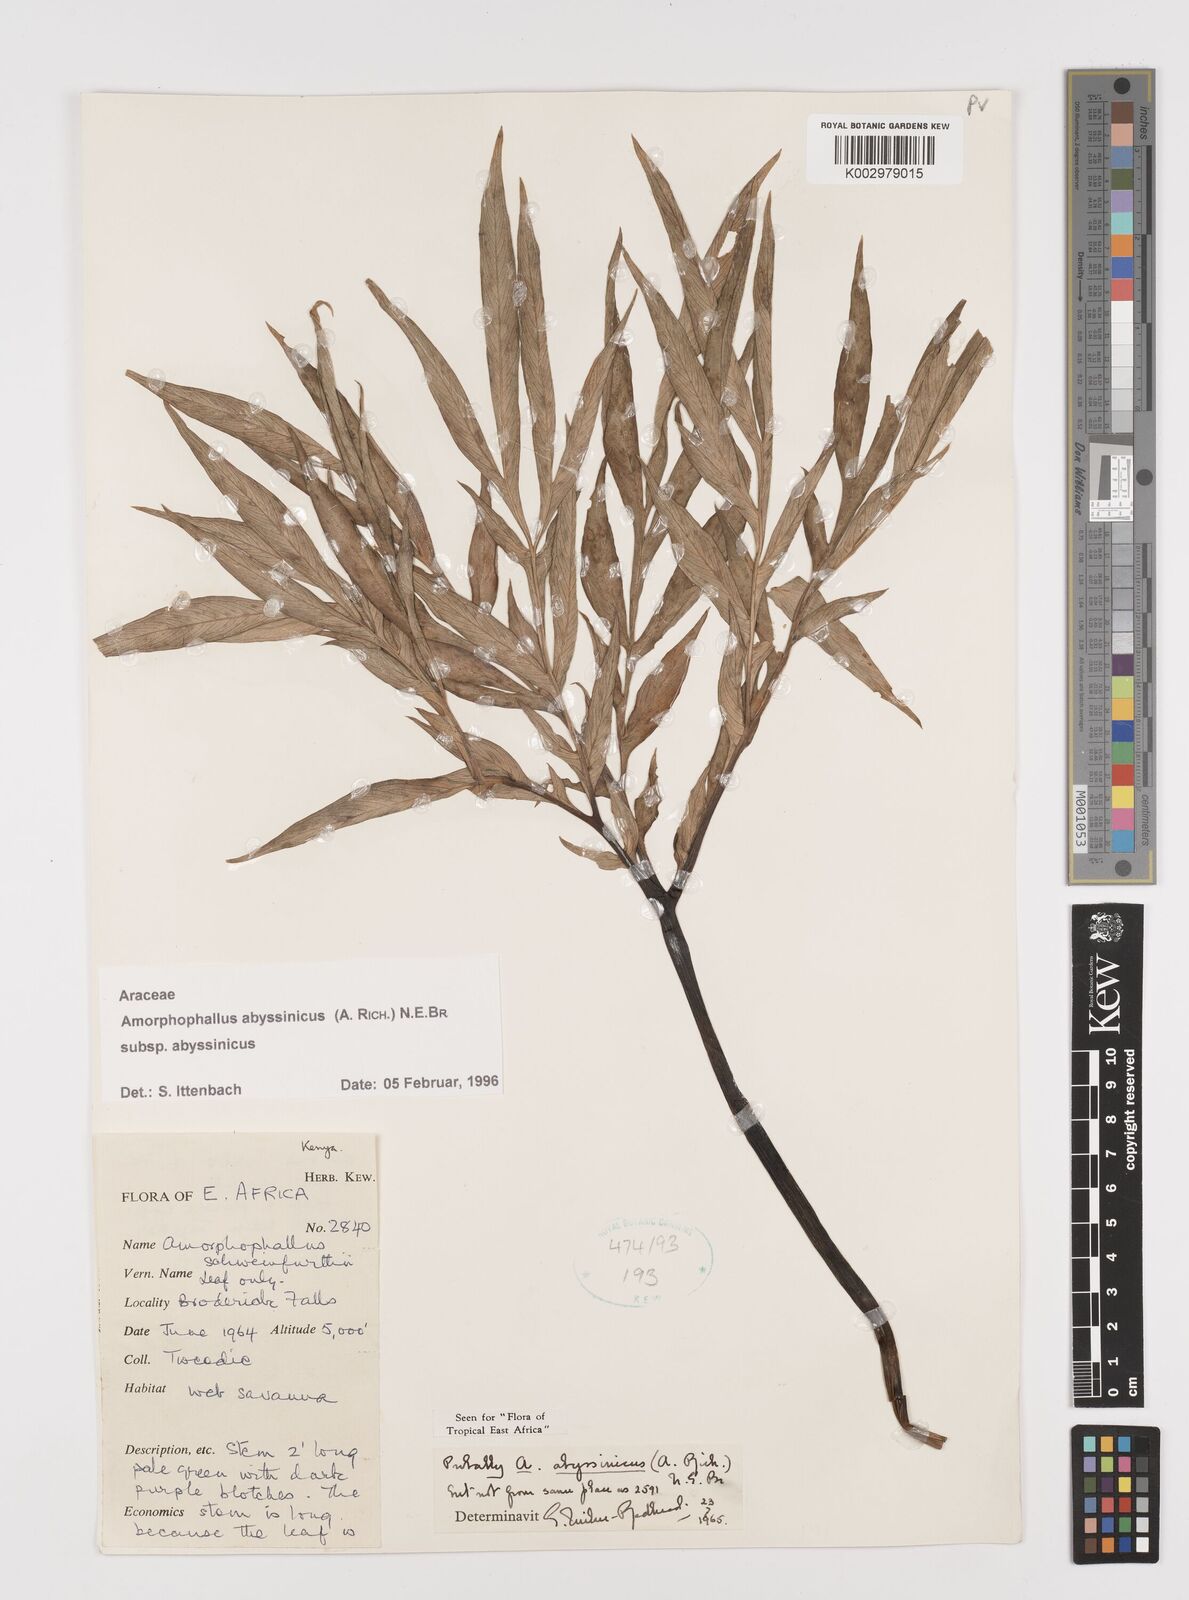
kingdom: Plantae
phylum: Tracheophyta
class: Liliopsida
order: Alismatales
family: Araceae
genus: Amorphophallus
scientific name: Amorphophallus abyssinicus
